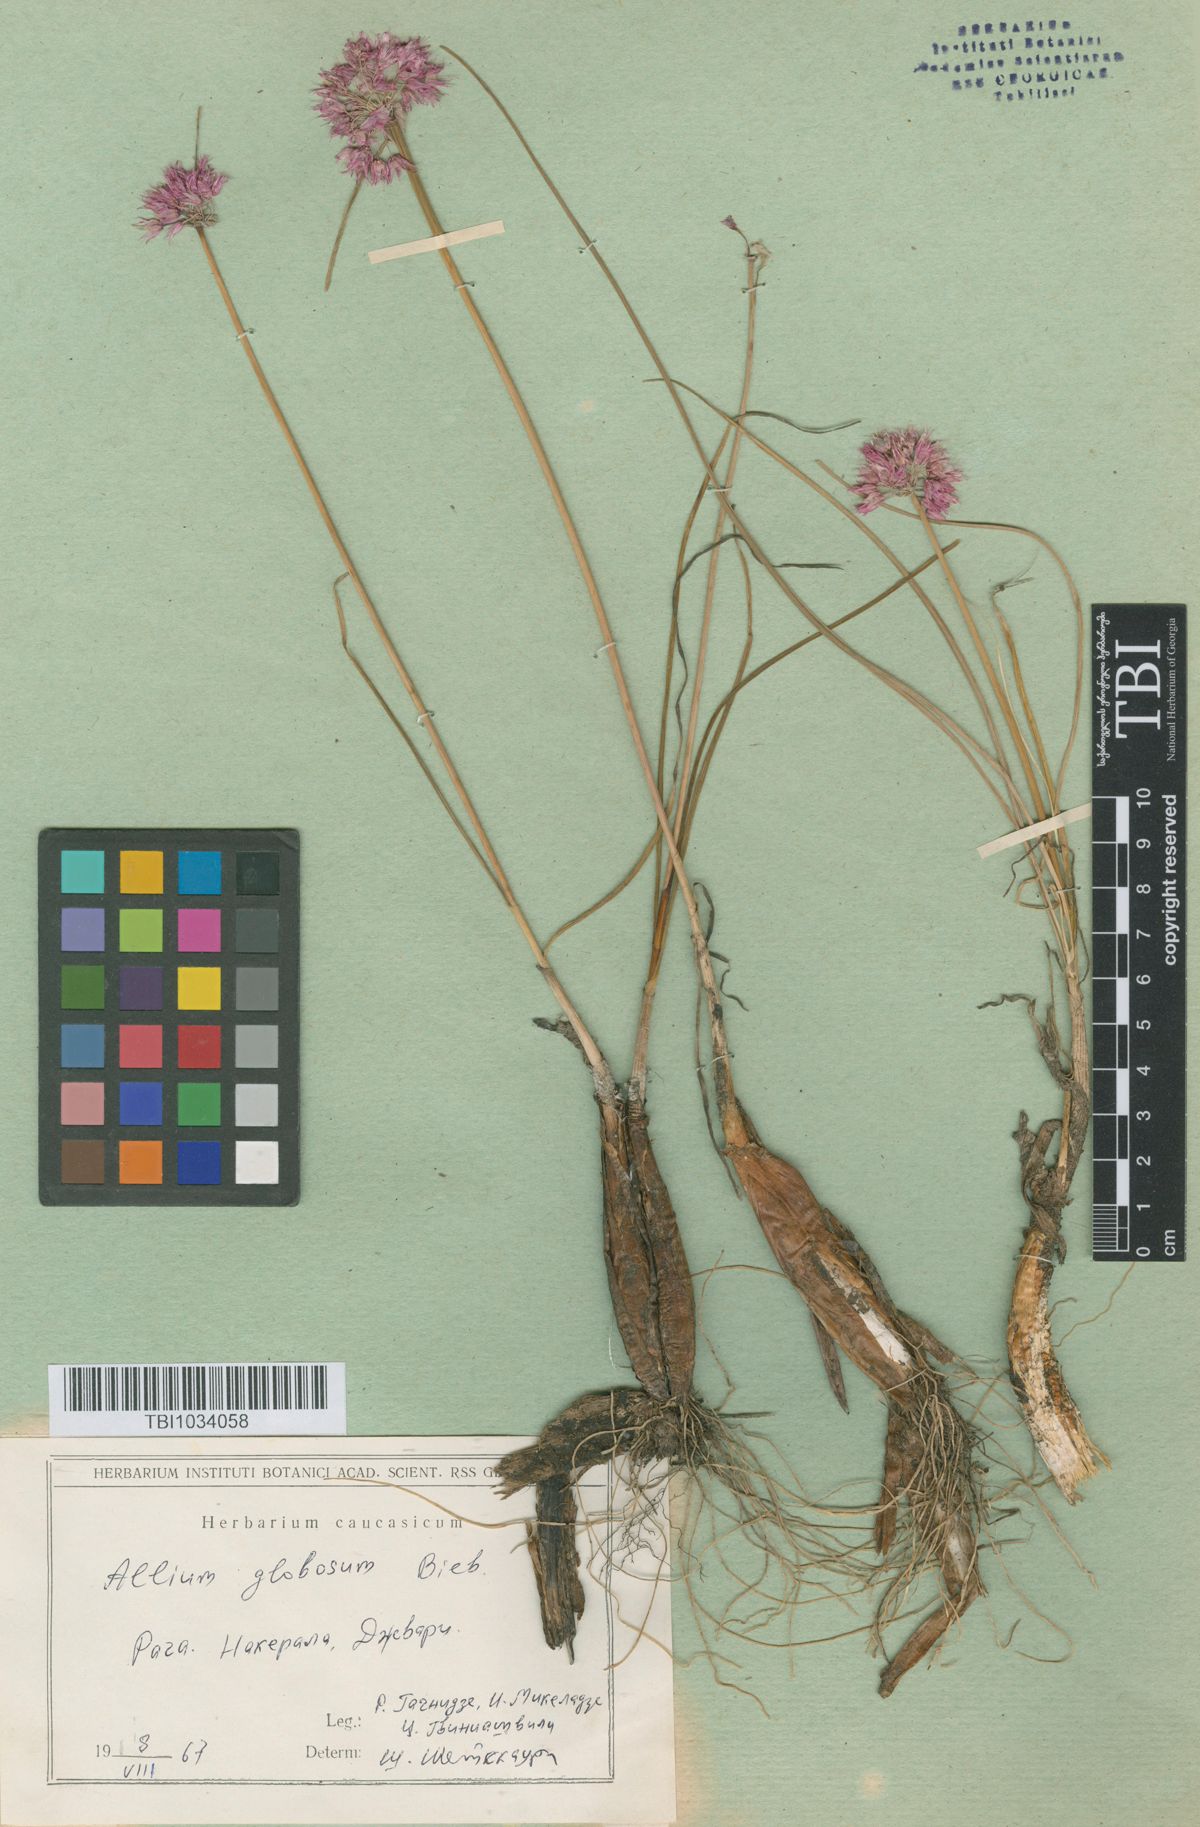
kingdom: Plantae
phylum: Tracheophyta
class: Liliopsida
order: Asparagales
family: Amaryllidaceae
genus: Allium
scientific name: Allium saxatile
